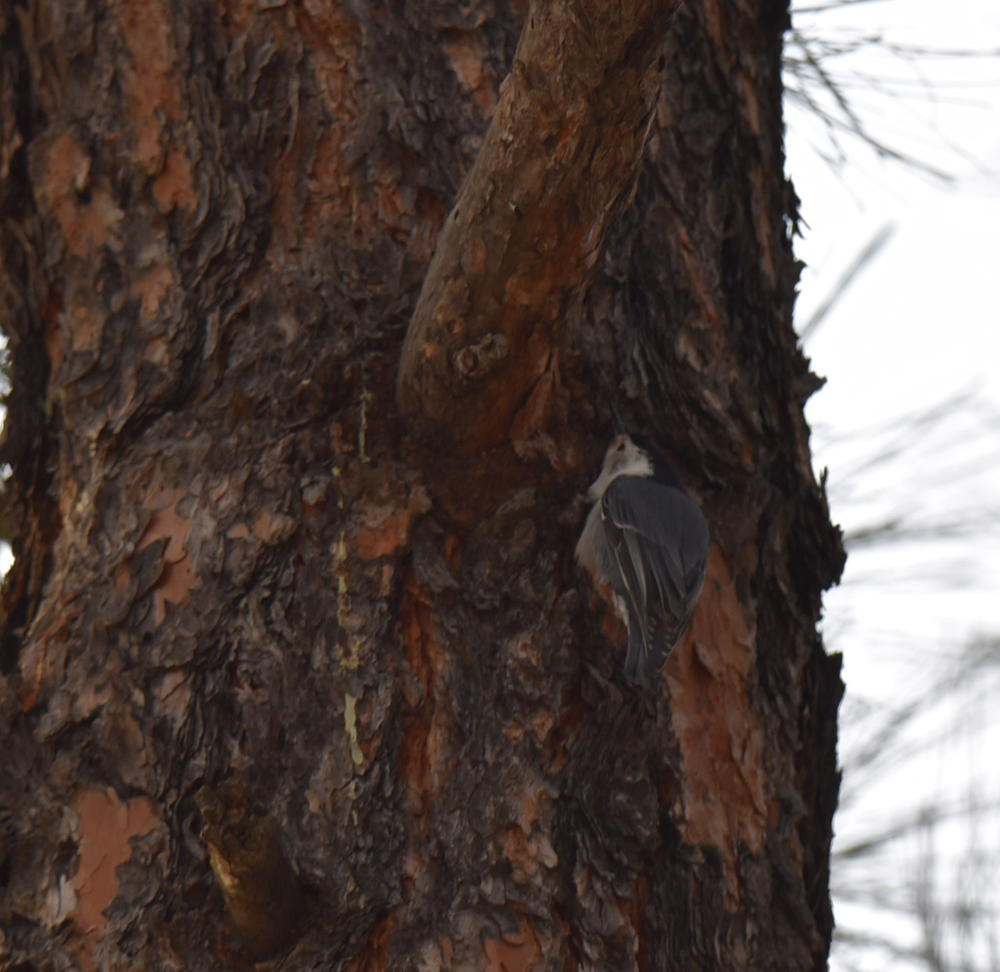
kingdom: Animalia
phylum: Chordata
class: Aves
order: Passeriformes
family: Sittidae
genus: Sitta
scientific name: Sitta carolinensis
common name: White-breasted nuthatch
